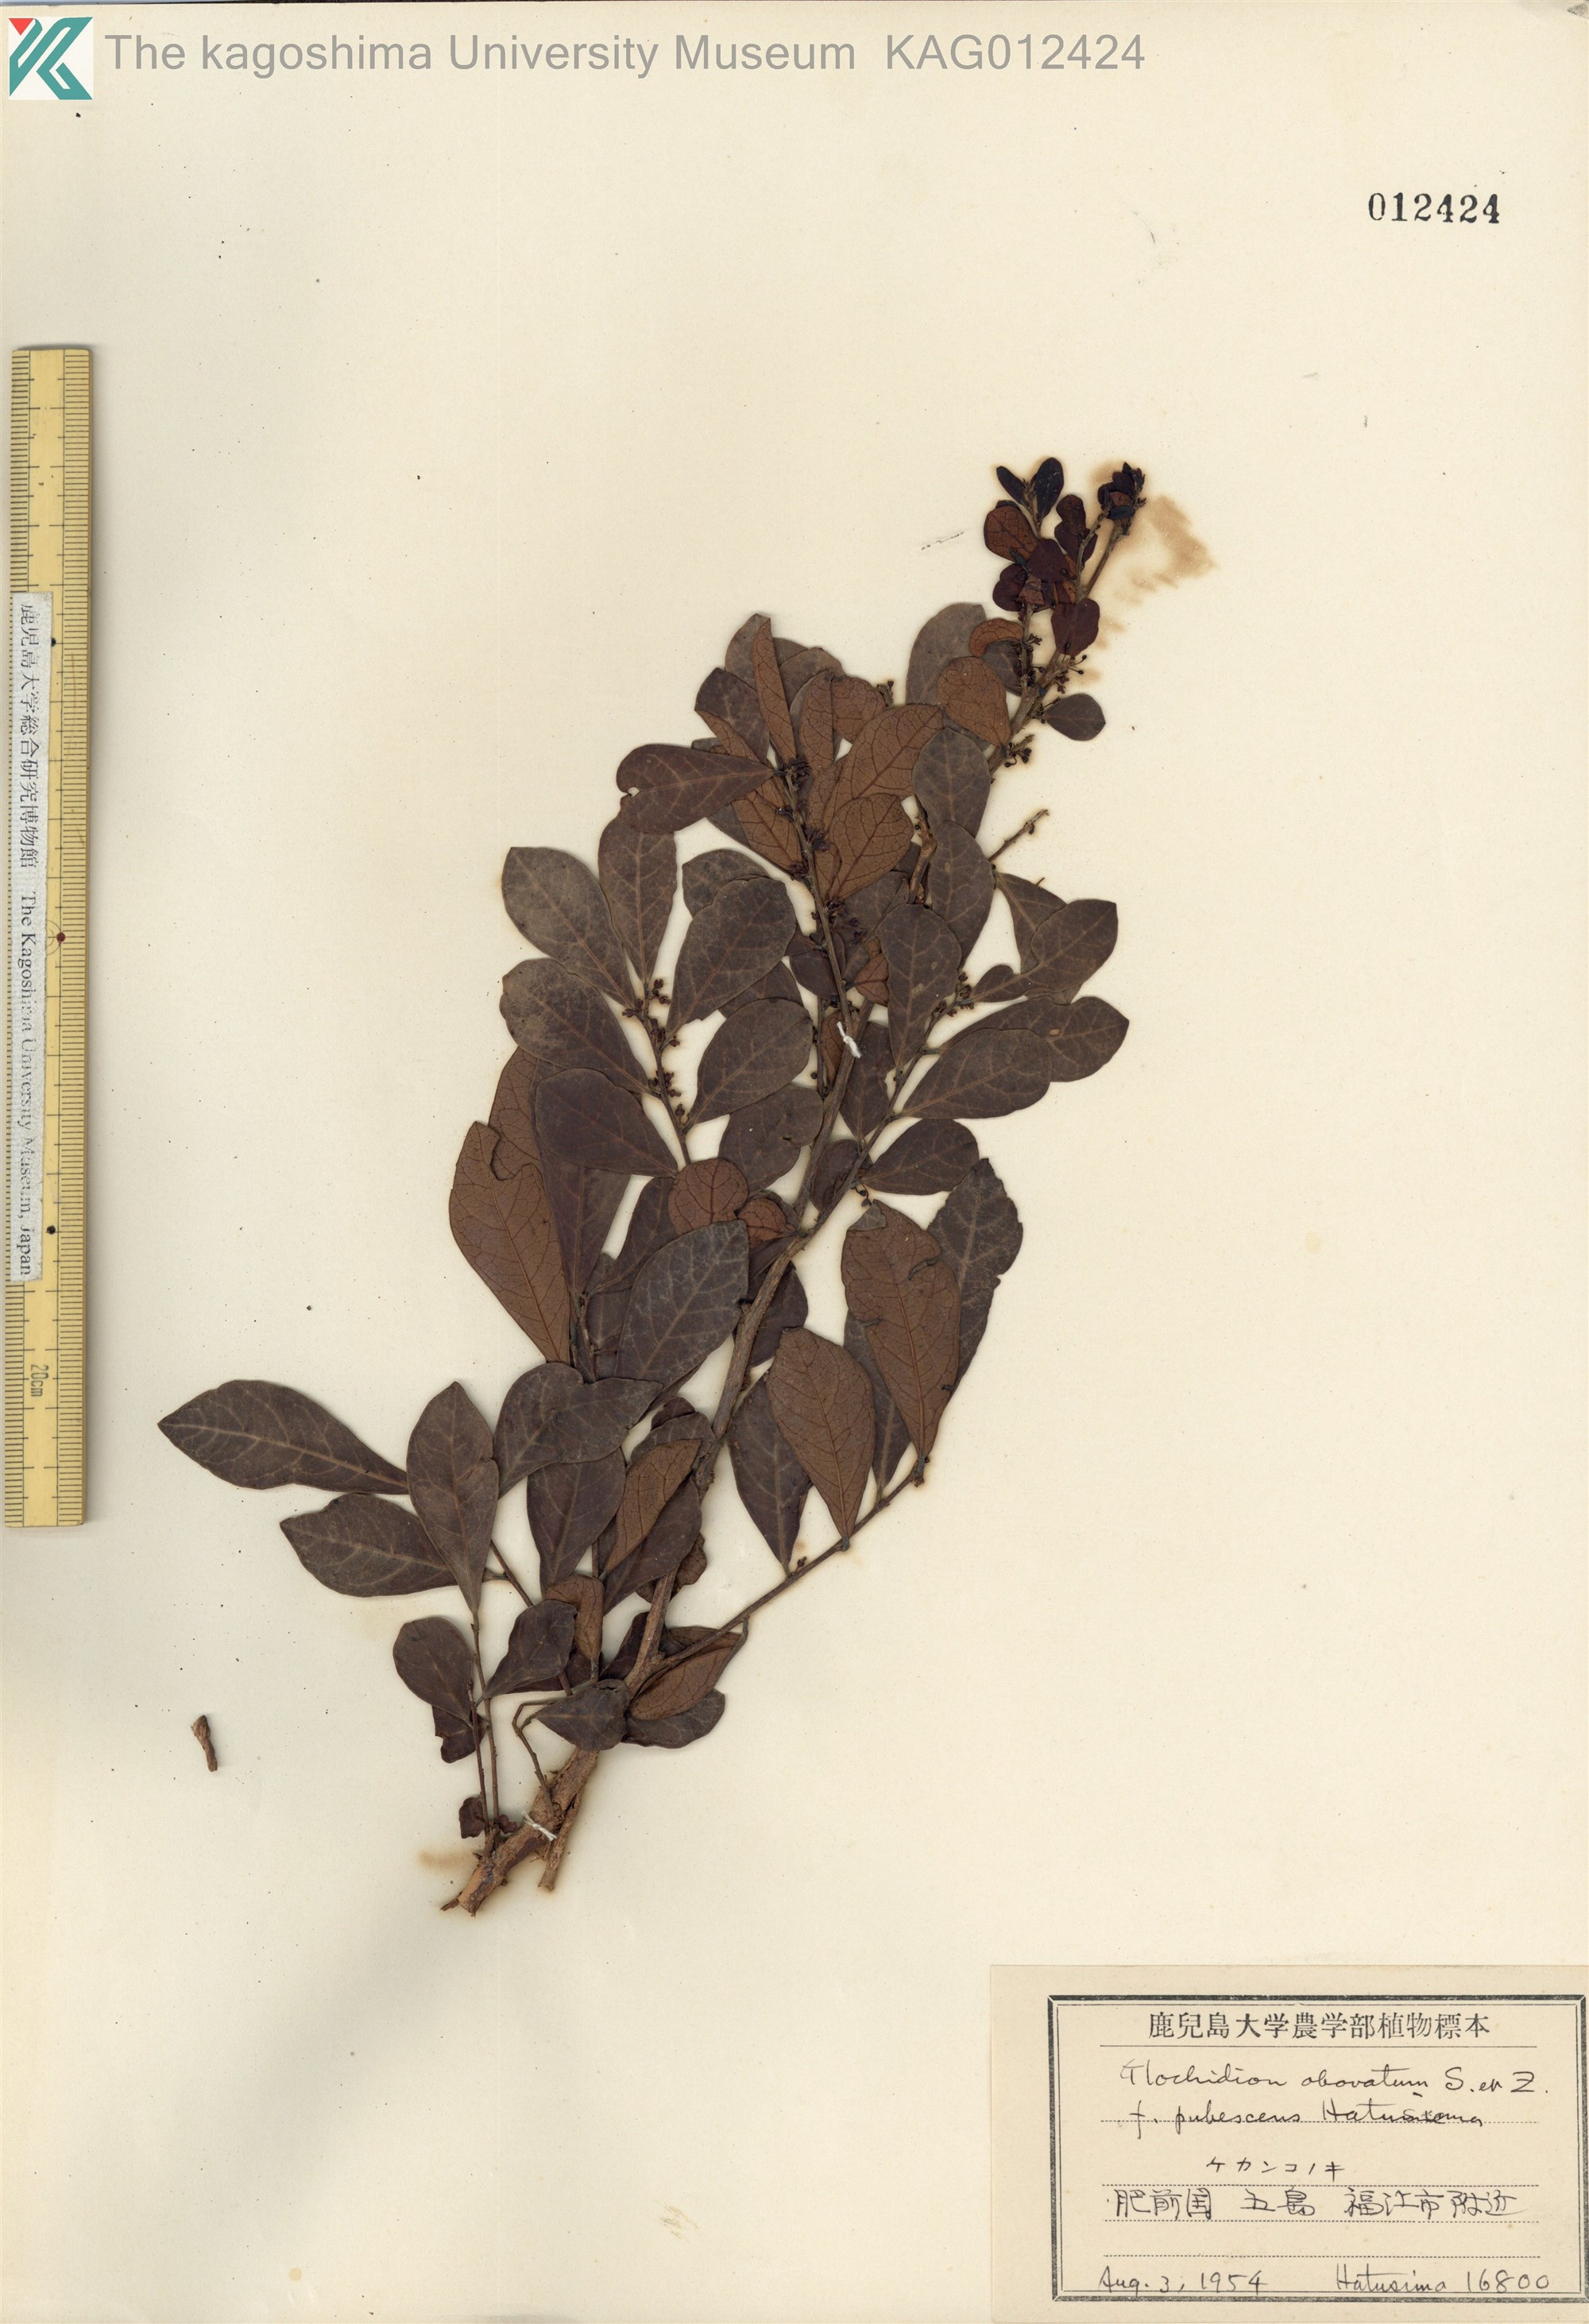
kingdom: Plantae
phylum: Tracheophyta
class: Magnoliopsida
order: Malpighiales
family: Phyllanthaceae
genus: Glochidion
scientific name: Glochidion obovatum
